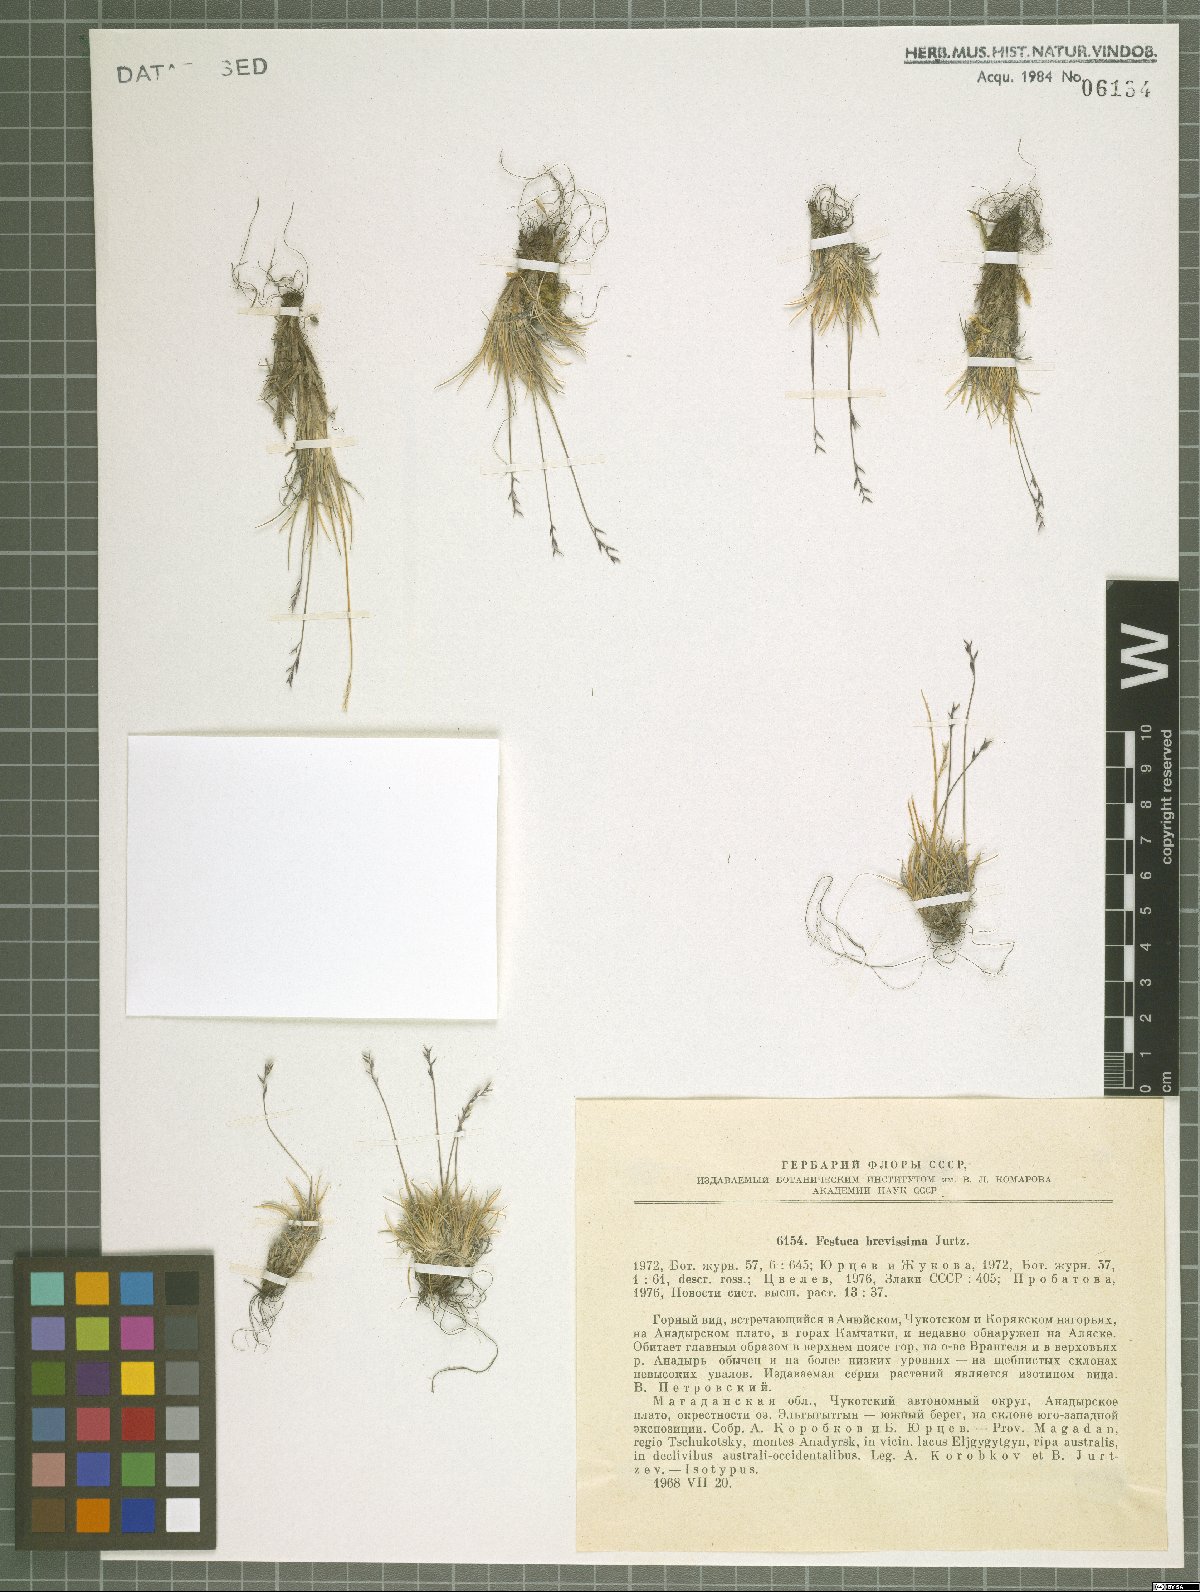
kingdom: Plantae
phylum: Tracheophyta
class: Liliopsida
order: Poales
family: Poaceae
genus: Festuca
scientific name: Festuca brevissima
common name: Alaska fescue
